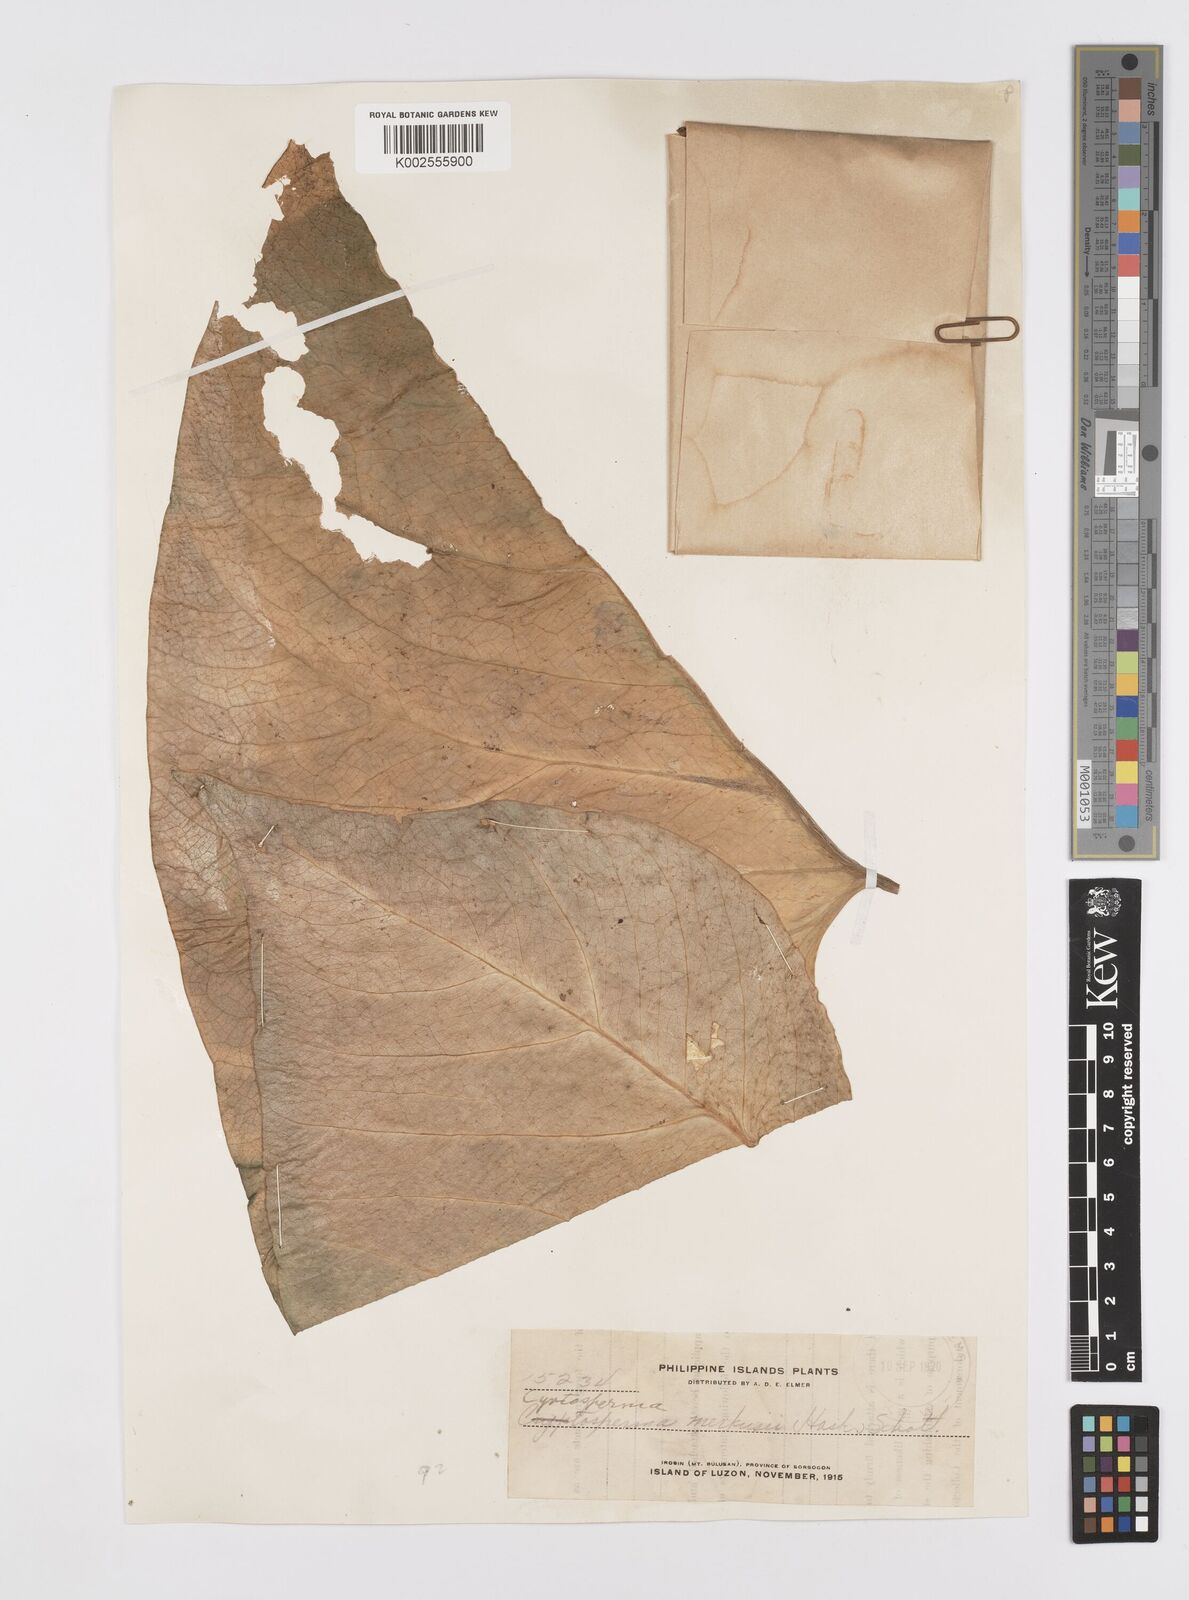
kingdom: Plantae
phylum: Tracheophyta
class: Liliopsida
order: Alismatales
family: Araceae
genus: Cyrtosperma
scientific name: Cyrtosperma merkusii
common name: Giant swamp-taro
